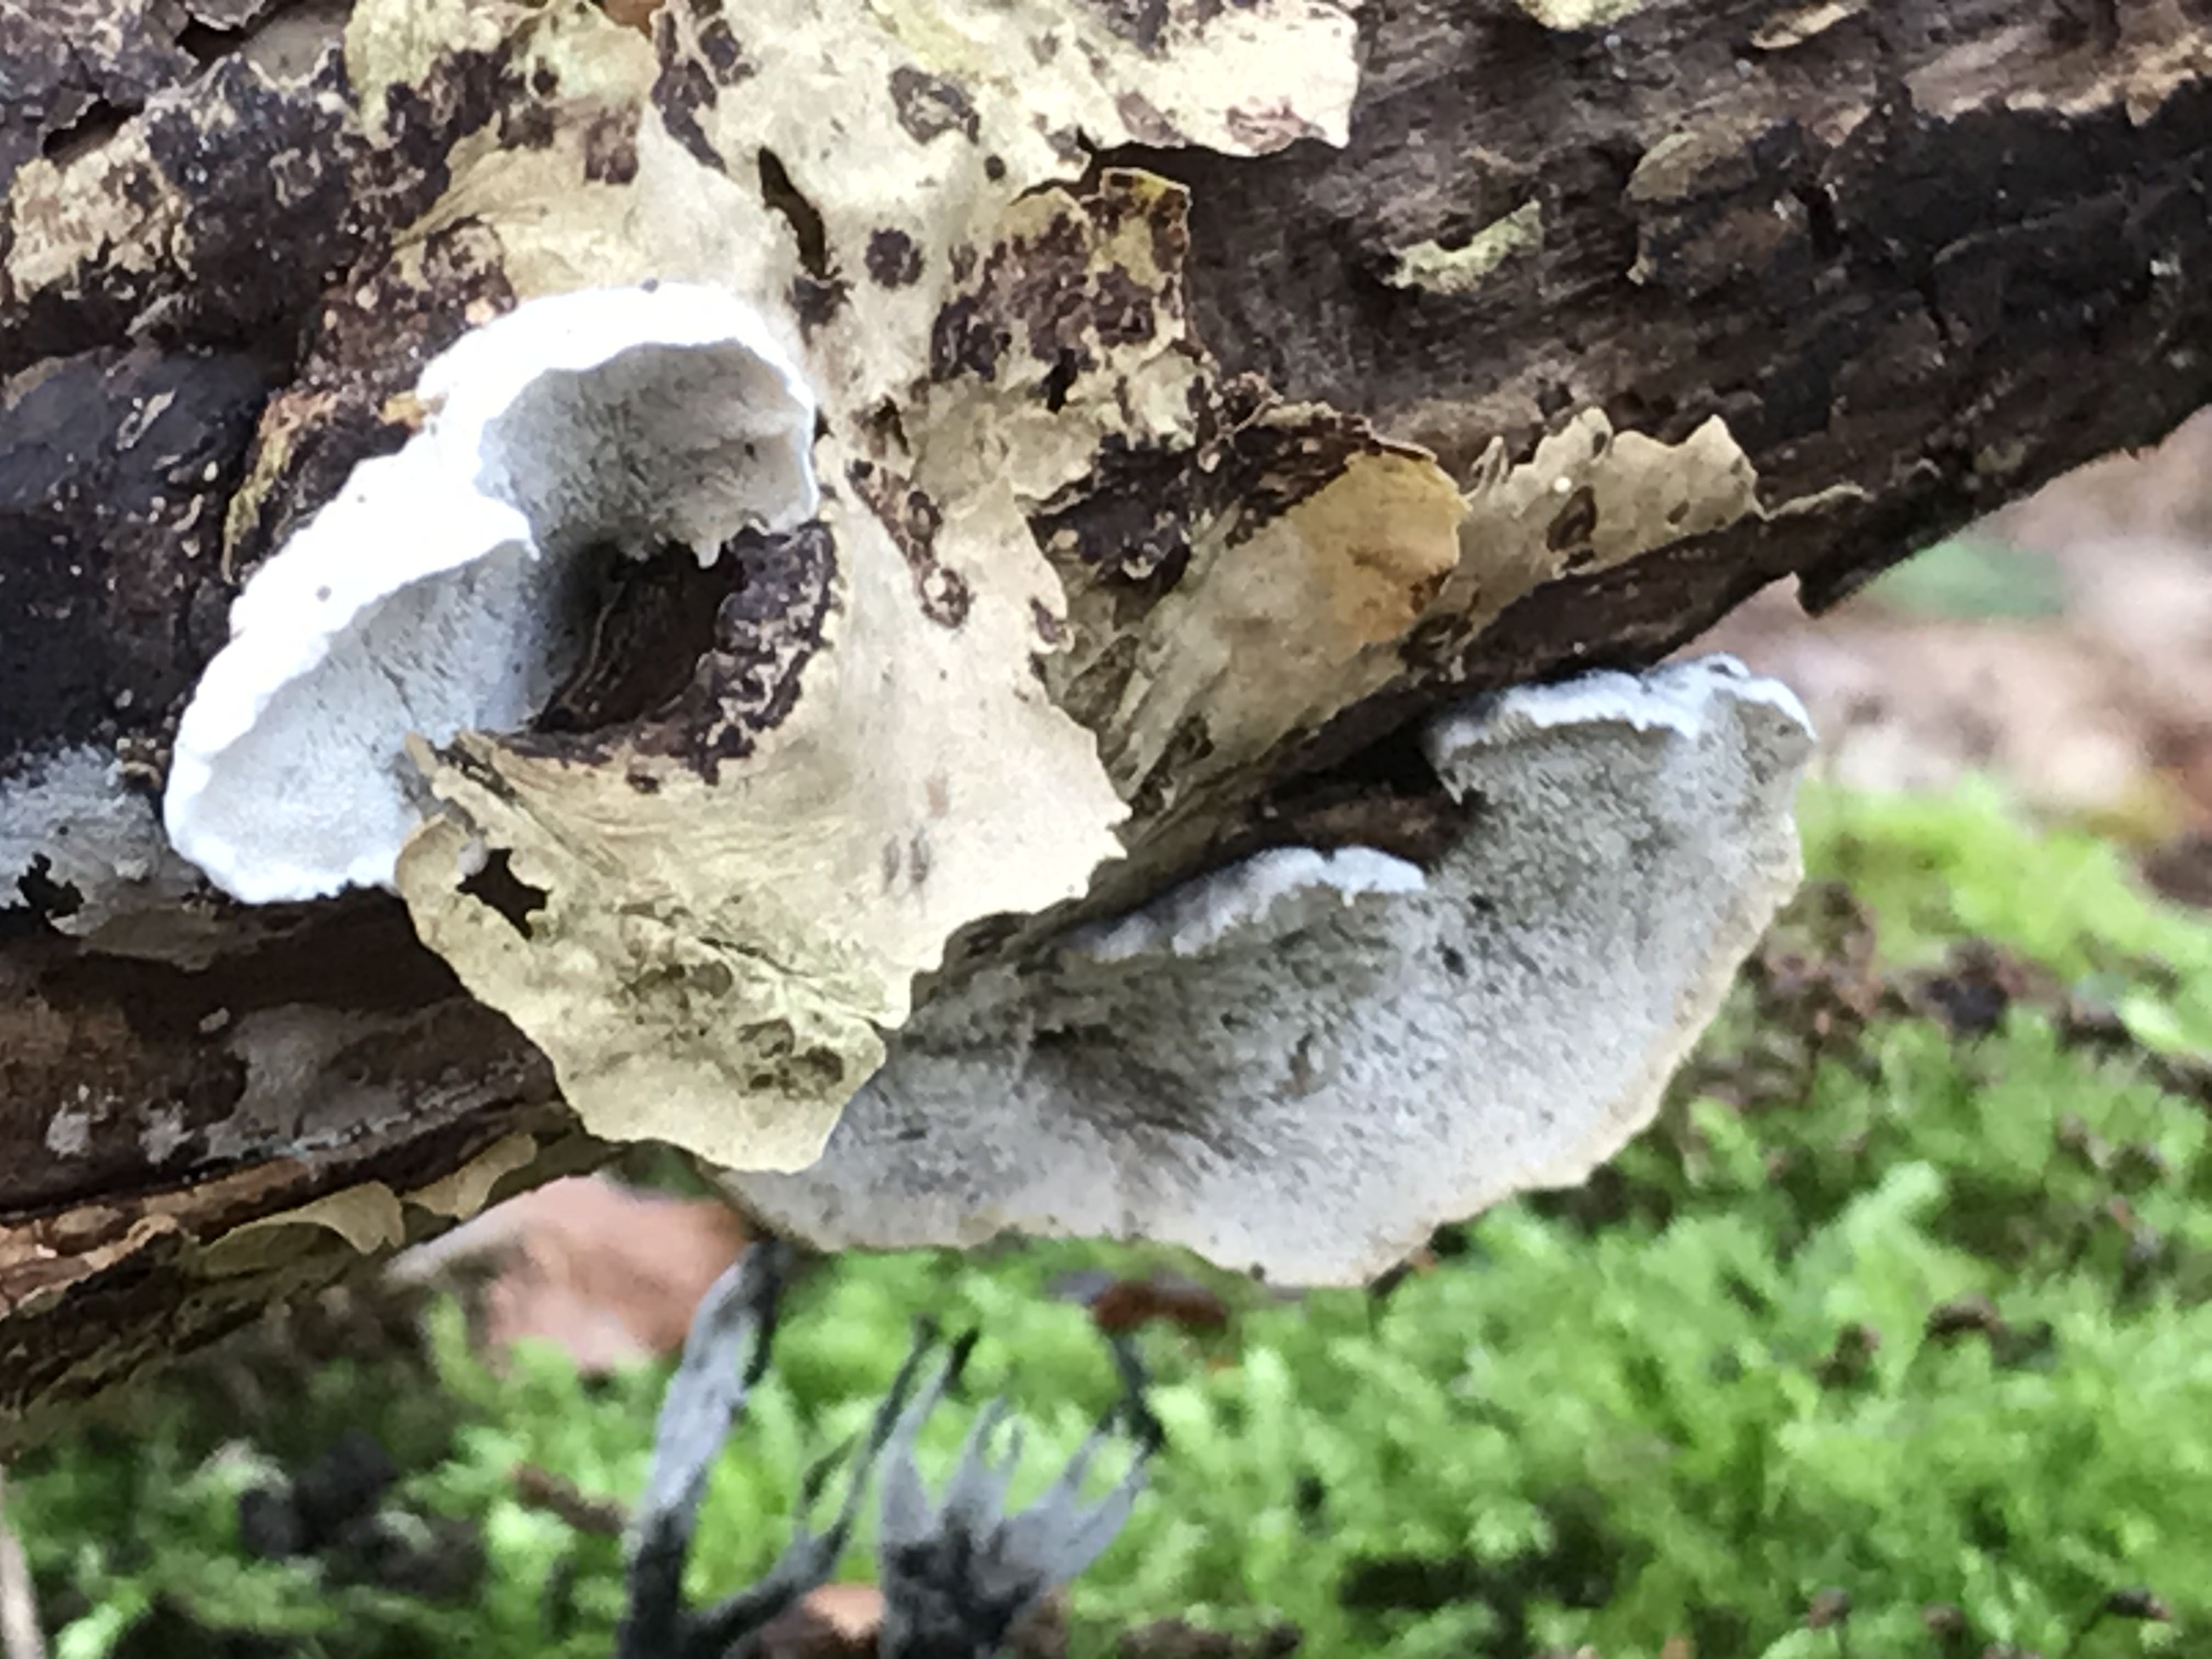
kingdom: Fungi
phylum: Basidiomycota
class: Agaricomycetes
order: Polyporales
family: Polyporaceae
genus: Cyanosporus
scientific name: Cyanosporus alni
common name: blegblå kødporesvamp
